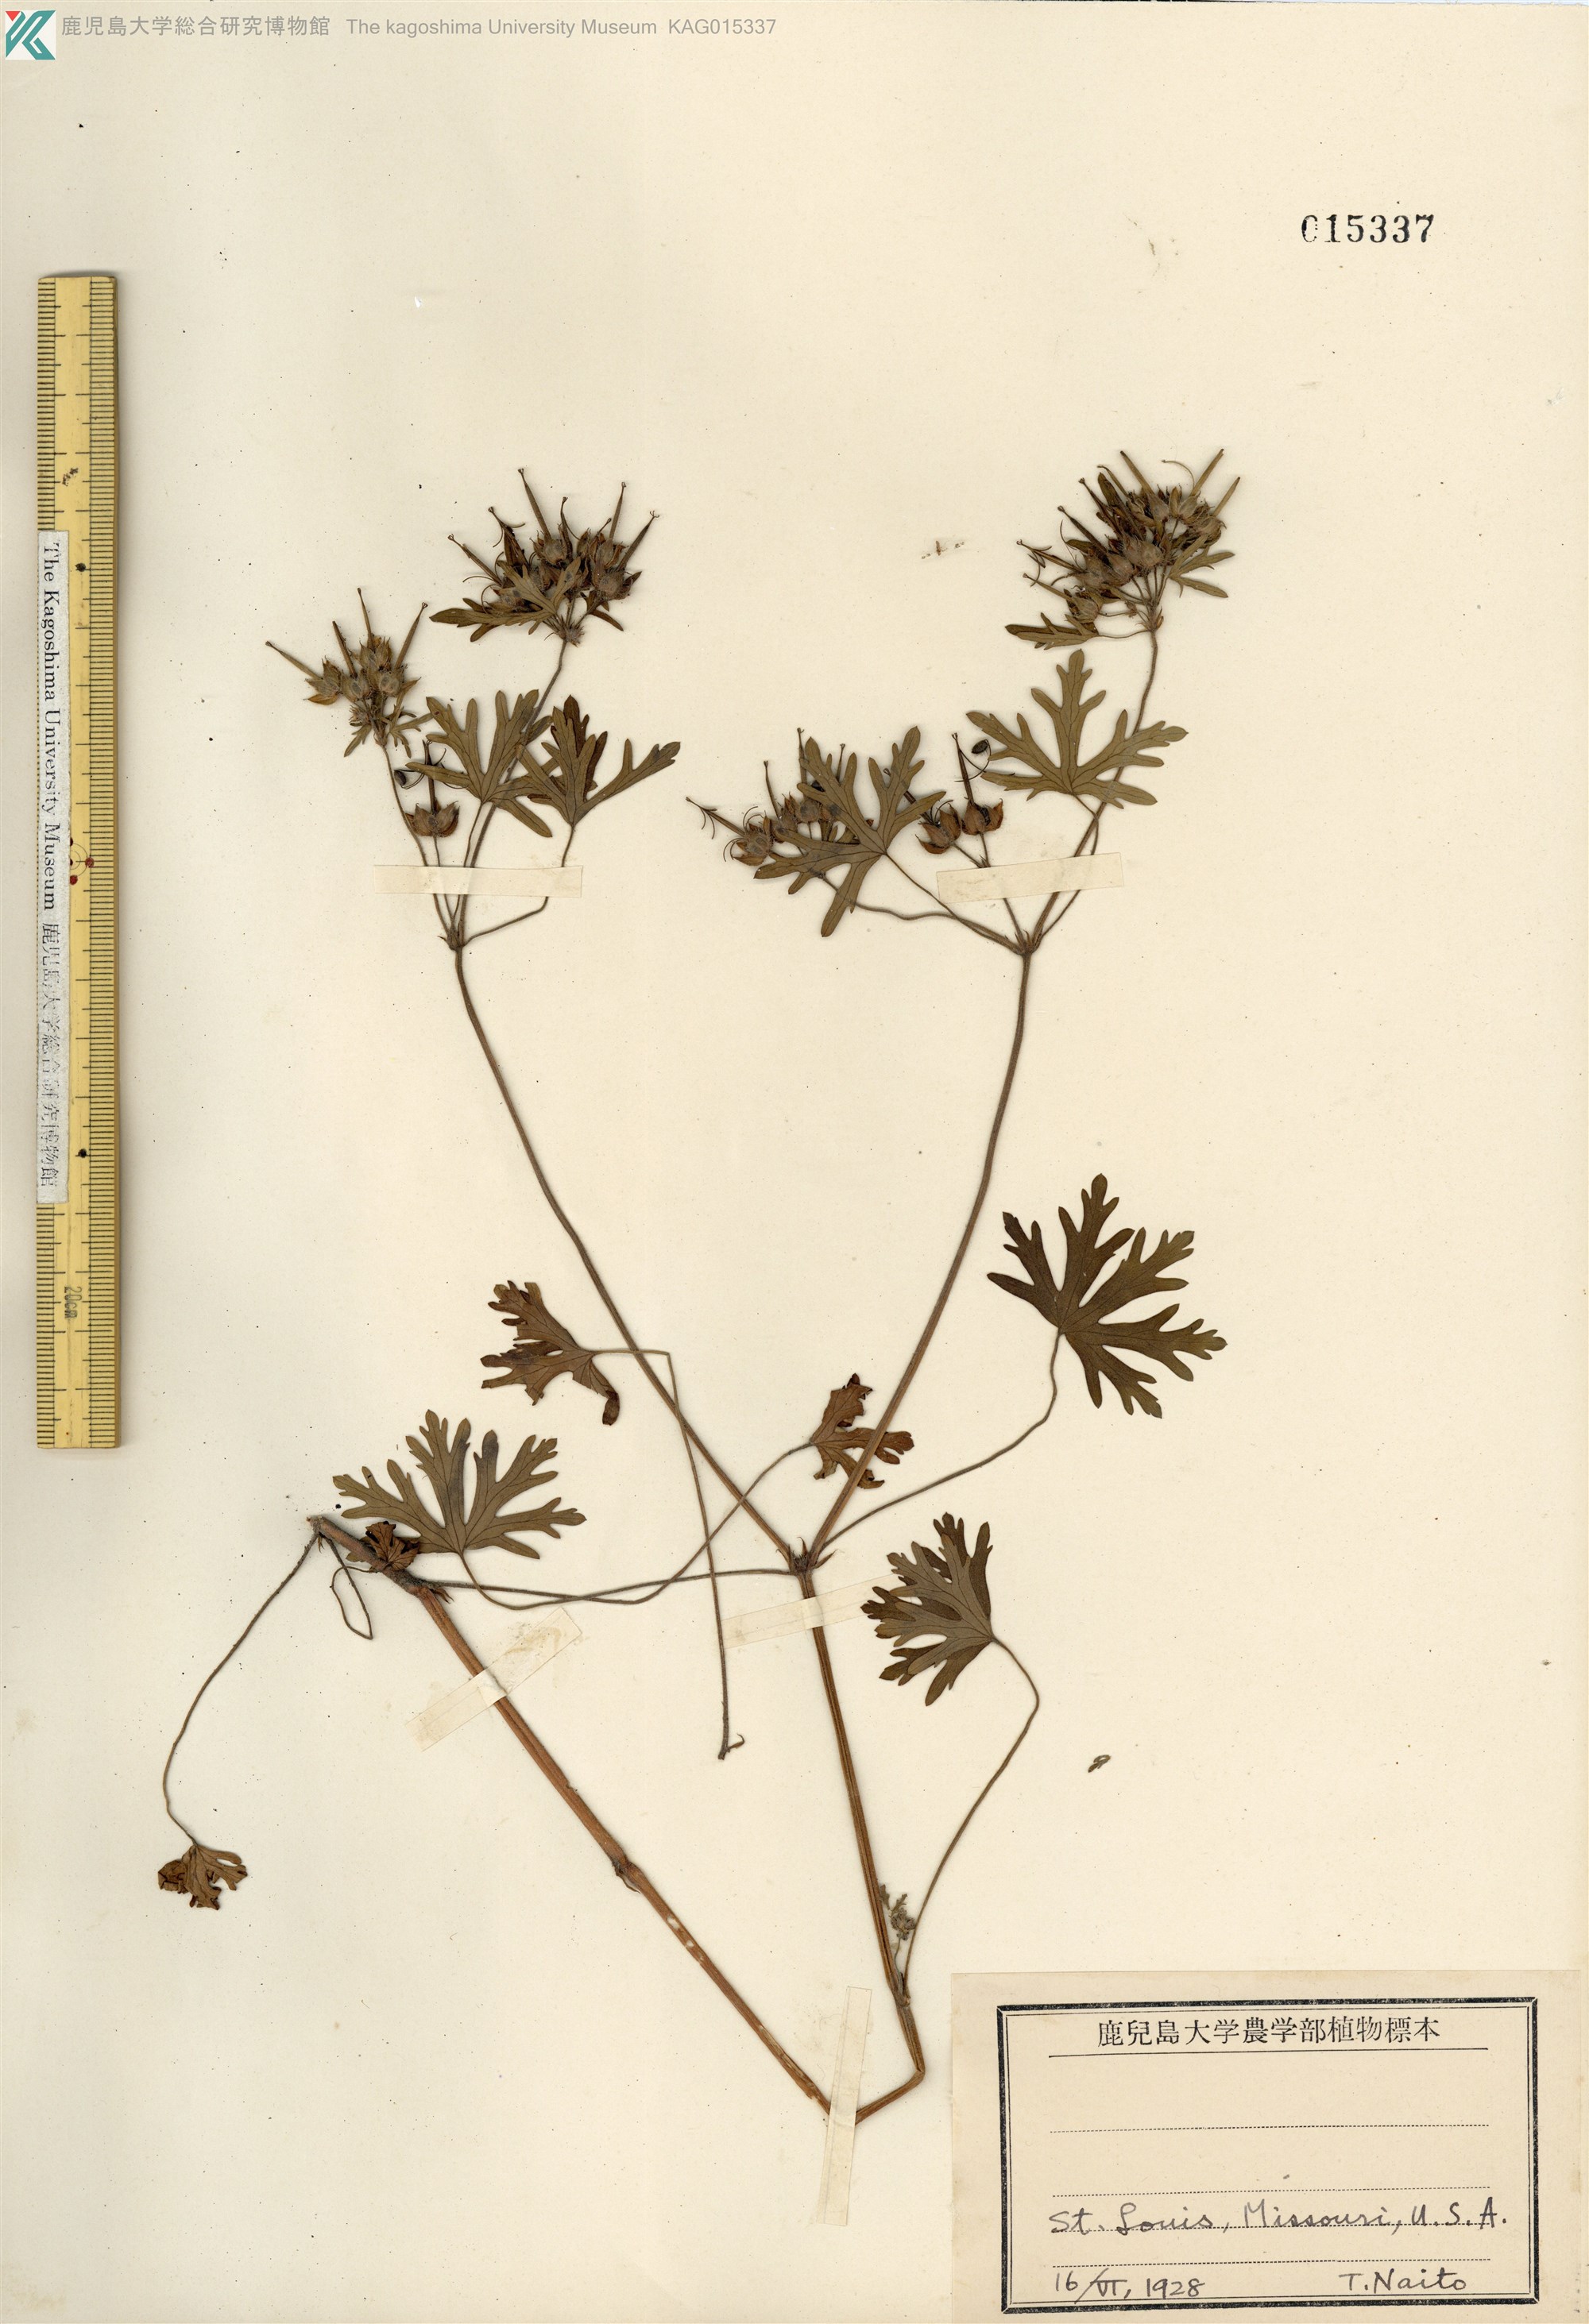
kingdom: Plantae
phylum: Tracheophyta
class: Magnoliopsida
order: Geraniales
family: Geraniaceae
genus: Geranium
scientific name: Geranium dissectum
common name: Cut-leaved crane's-bill
